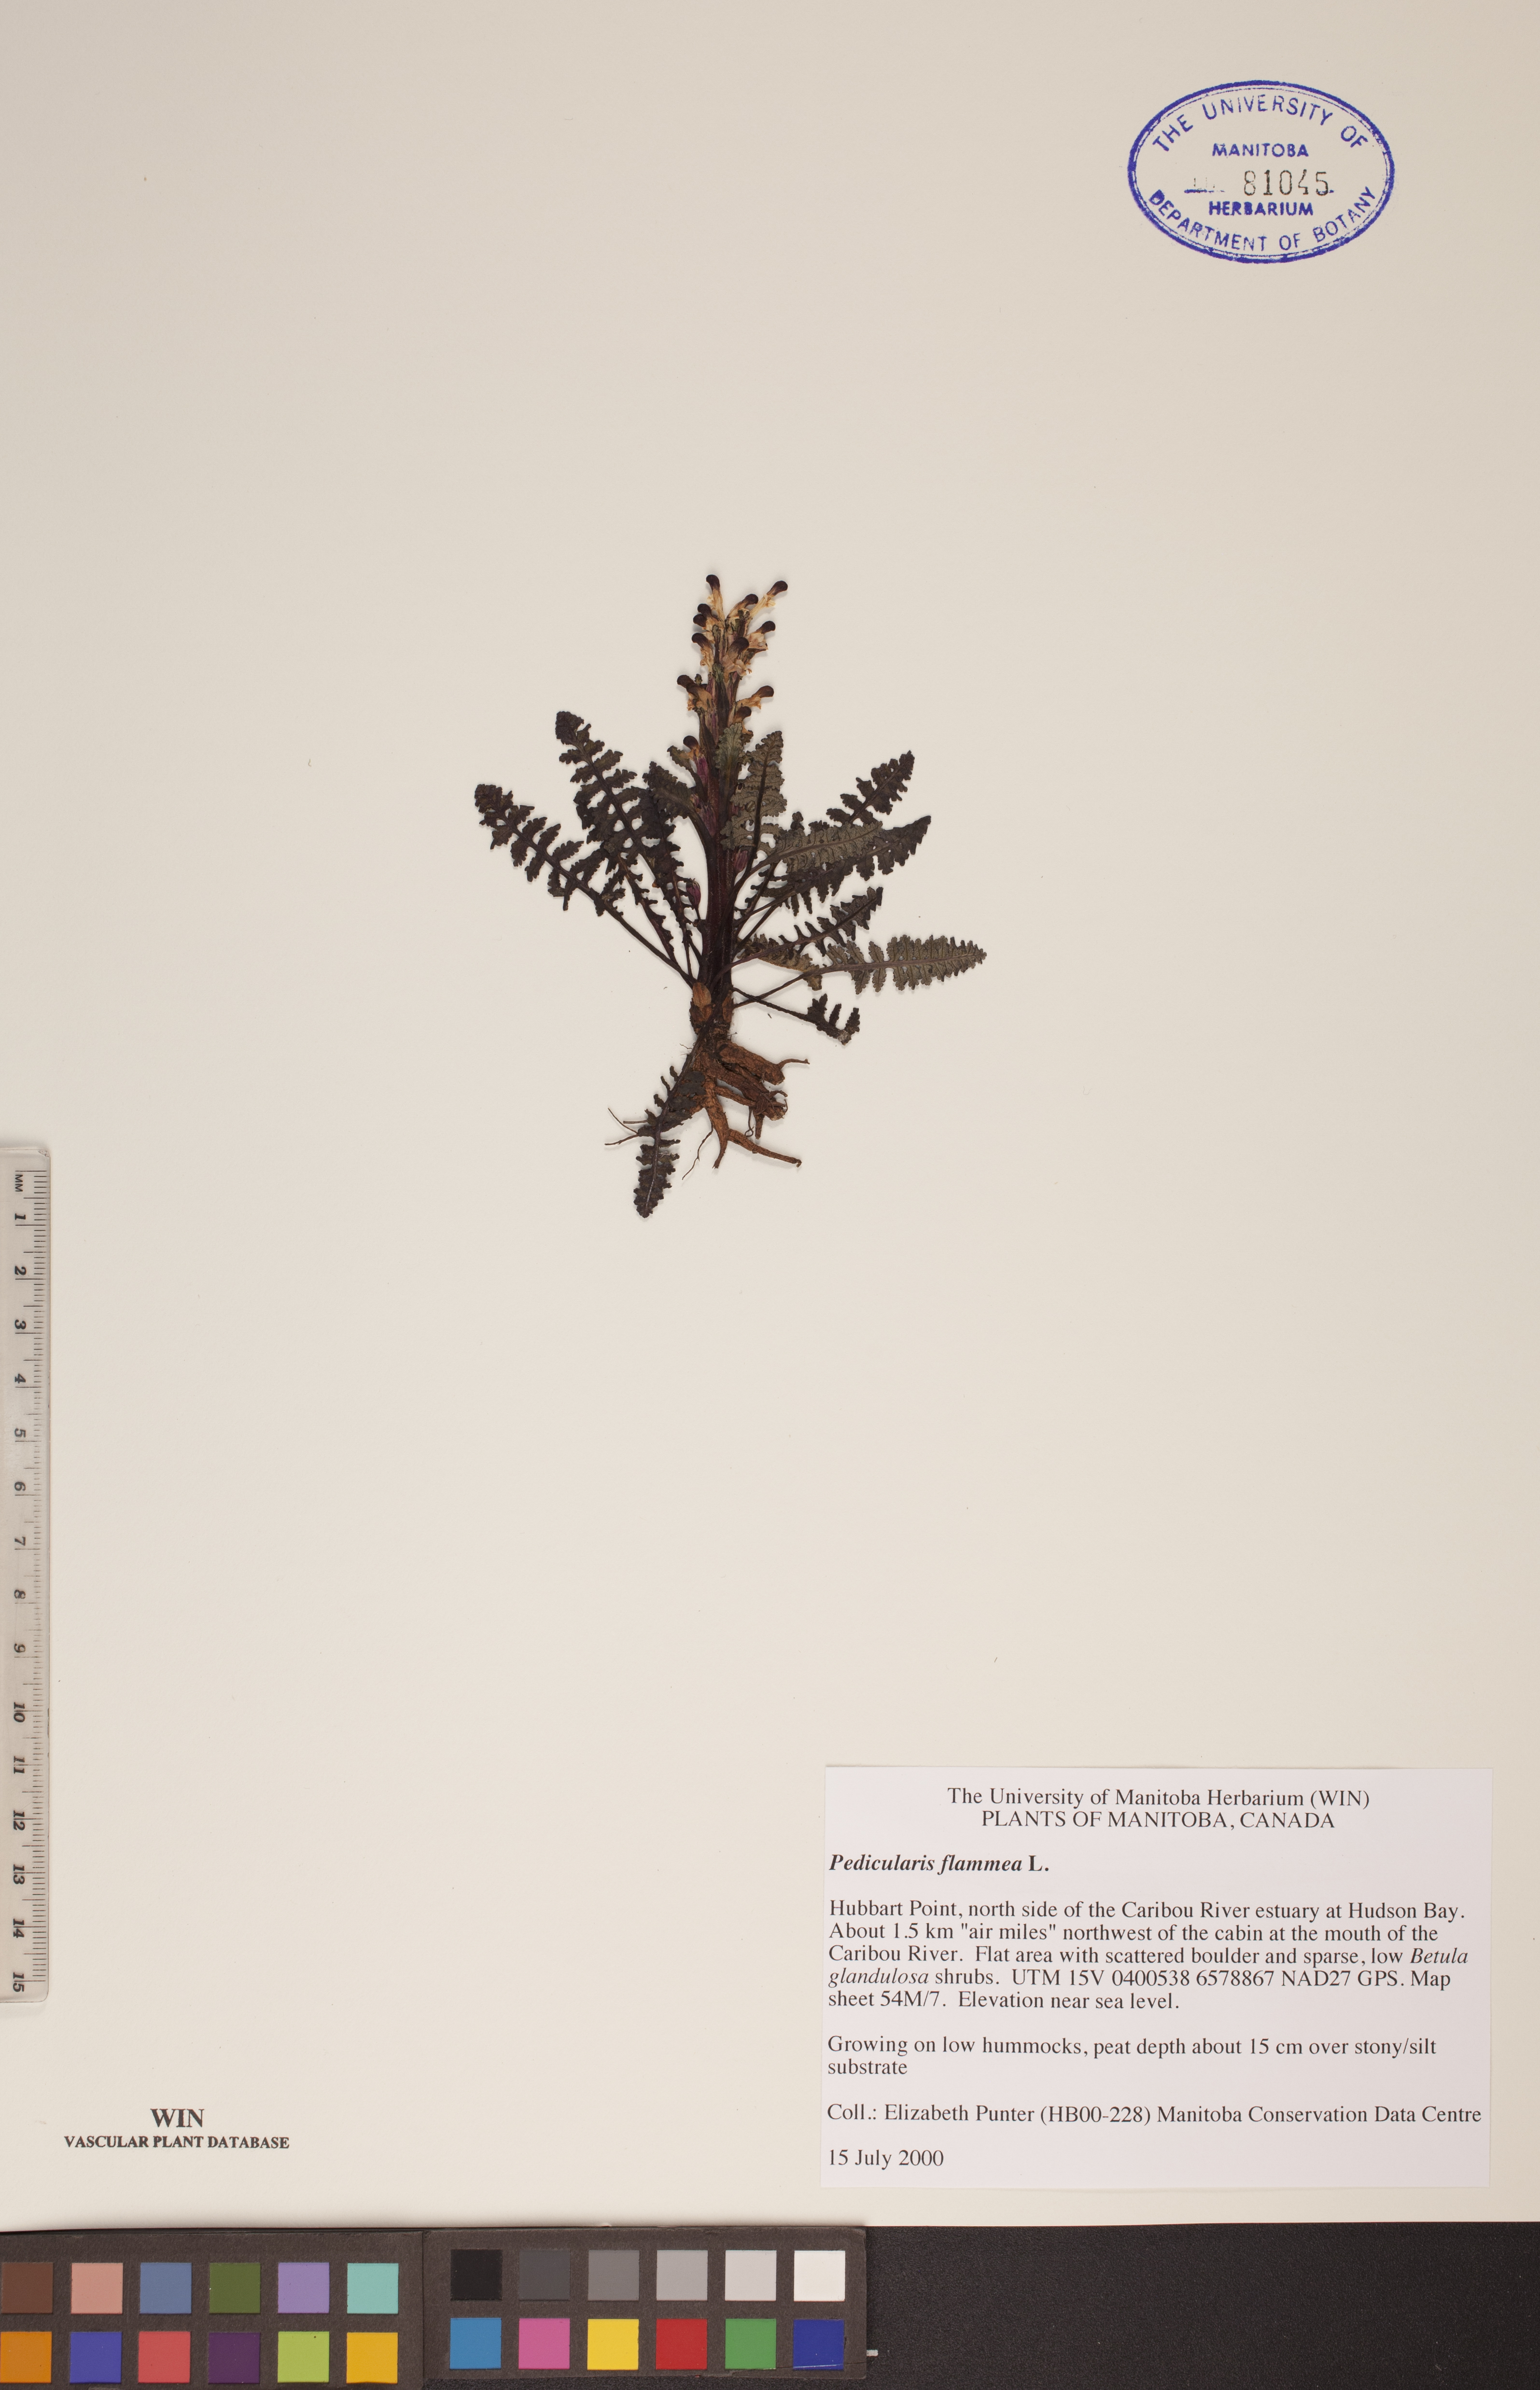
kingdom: Plantae
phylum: Tracheophyta
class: Magnoliopsida
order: Lamiales
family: Orobanchaceae
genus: Pedicularis
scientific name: Pedicularis flammea
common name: Flame-coloured lousewort
